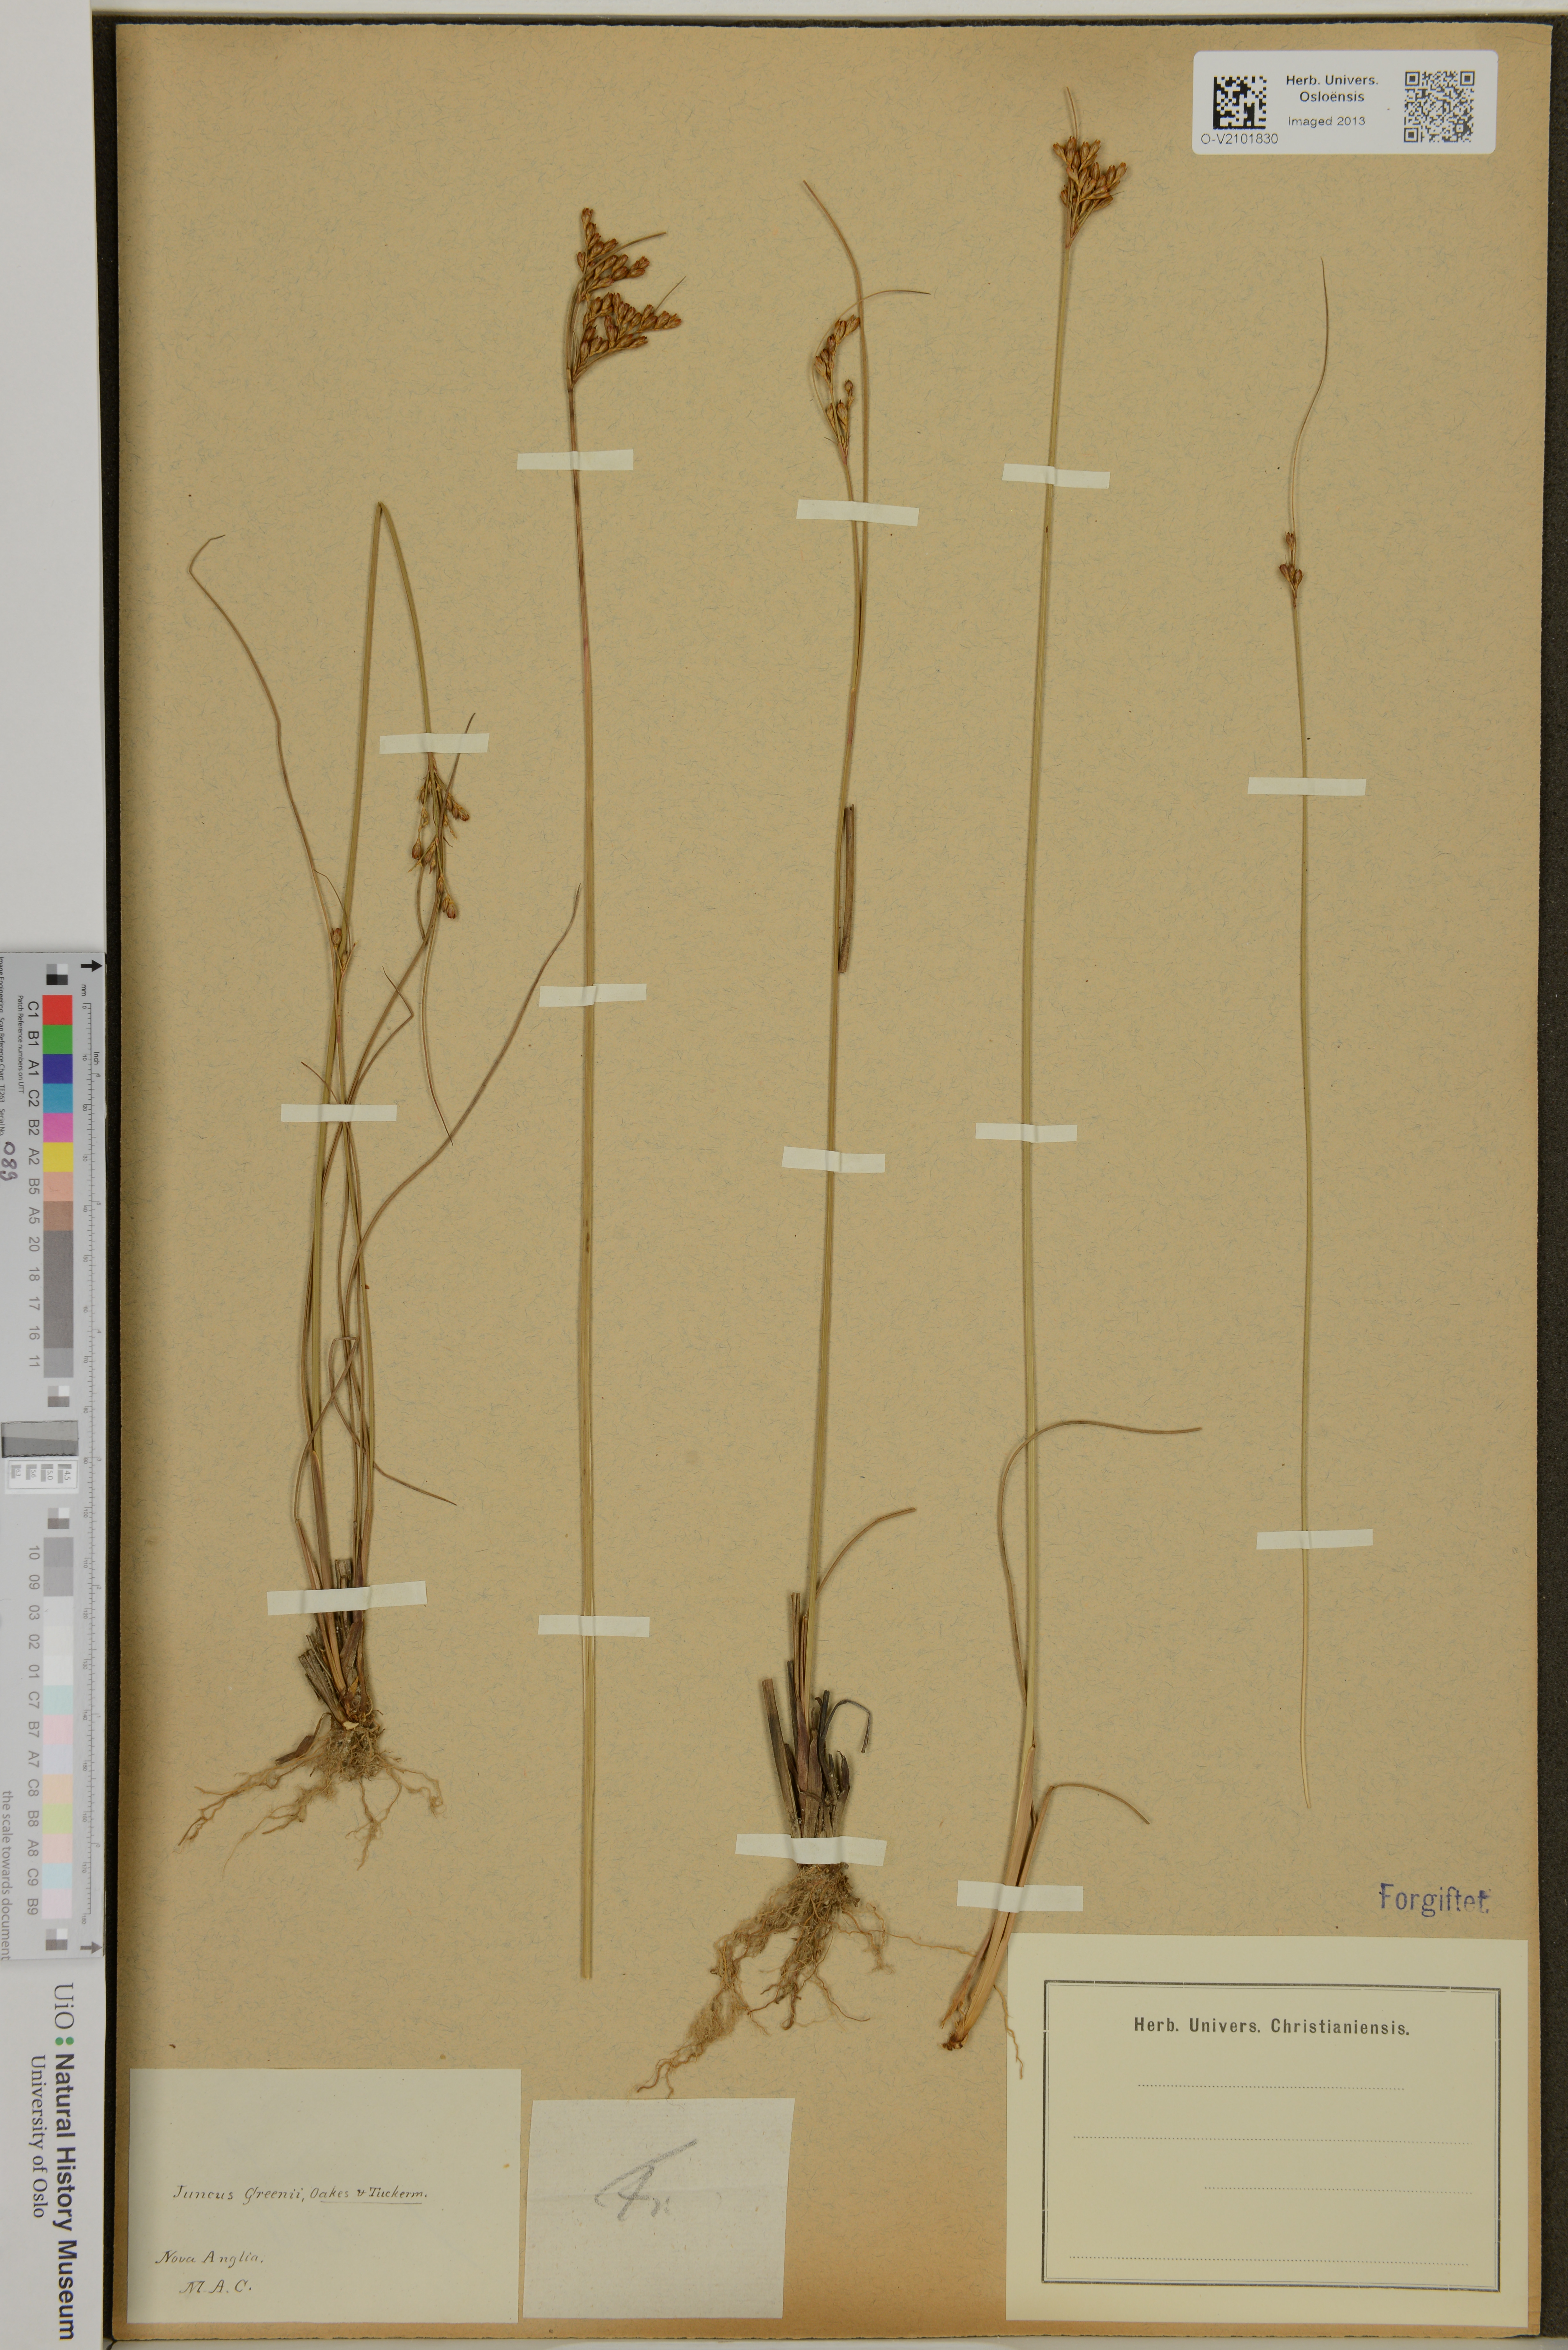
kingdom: Plantae
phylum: Tracheophyta
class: Liliopsida
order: Poales
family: Juncaceae
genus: Juncus
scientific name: Juncus greenei
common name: Greene's rush
